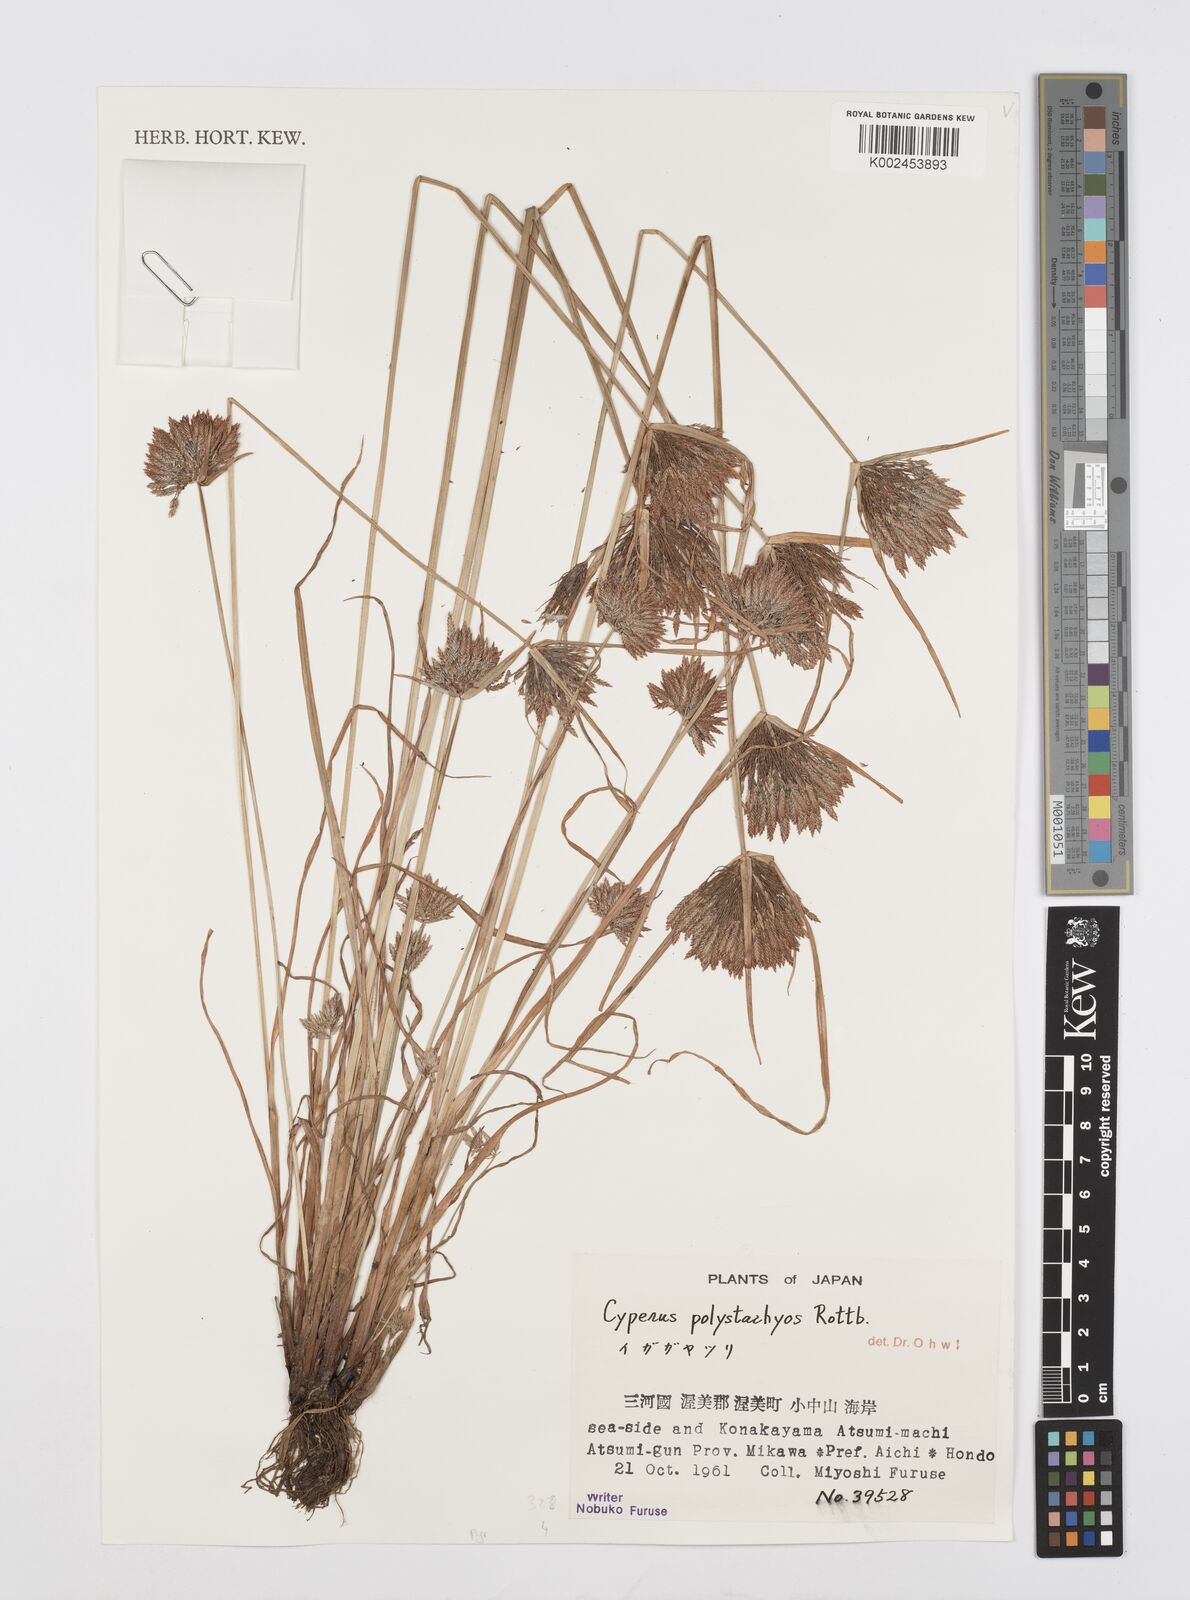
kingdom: Plantae
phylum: Tracheophyta
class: Liliopsida
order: Poales
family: Cyperaceae
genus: Cyperus
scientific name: Cyperus polystachyos
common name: Bunchy flat sedge
